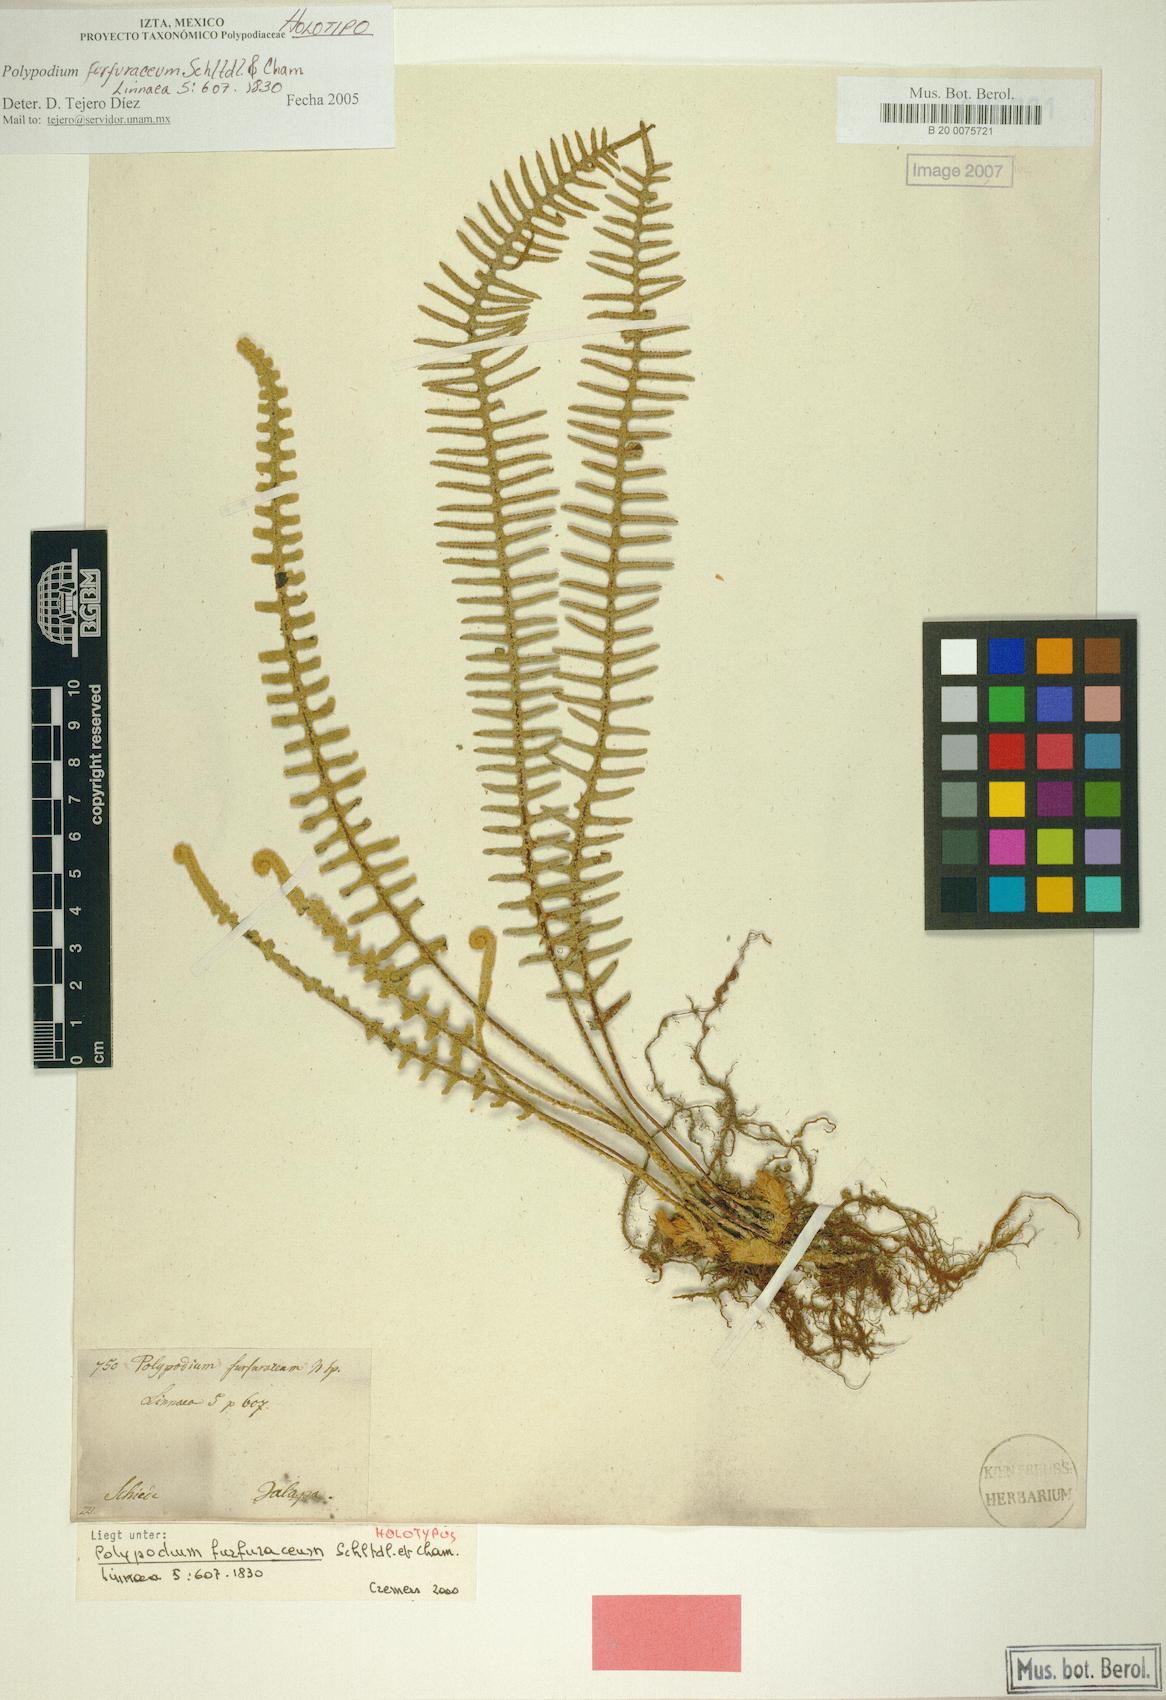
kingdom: Plantae
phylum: Tracheophyta
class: Polypodiopsida
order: Polypodiales
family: Polypodiaceae
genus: Pleopeltis
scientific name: Pleopeltis furfuracea
